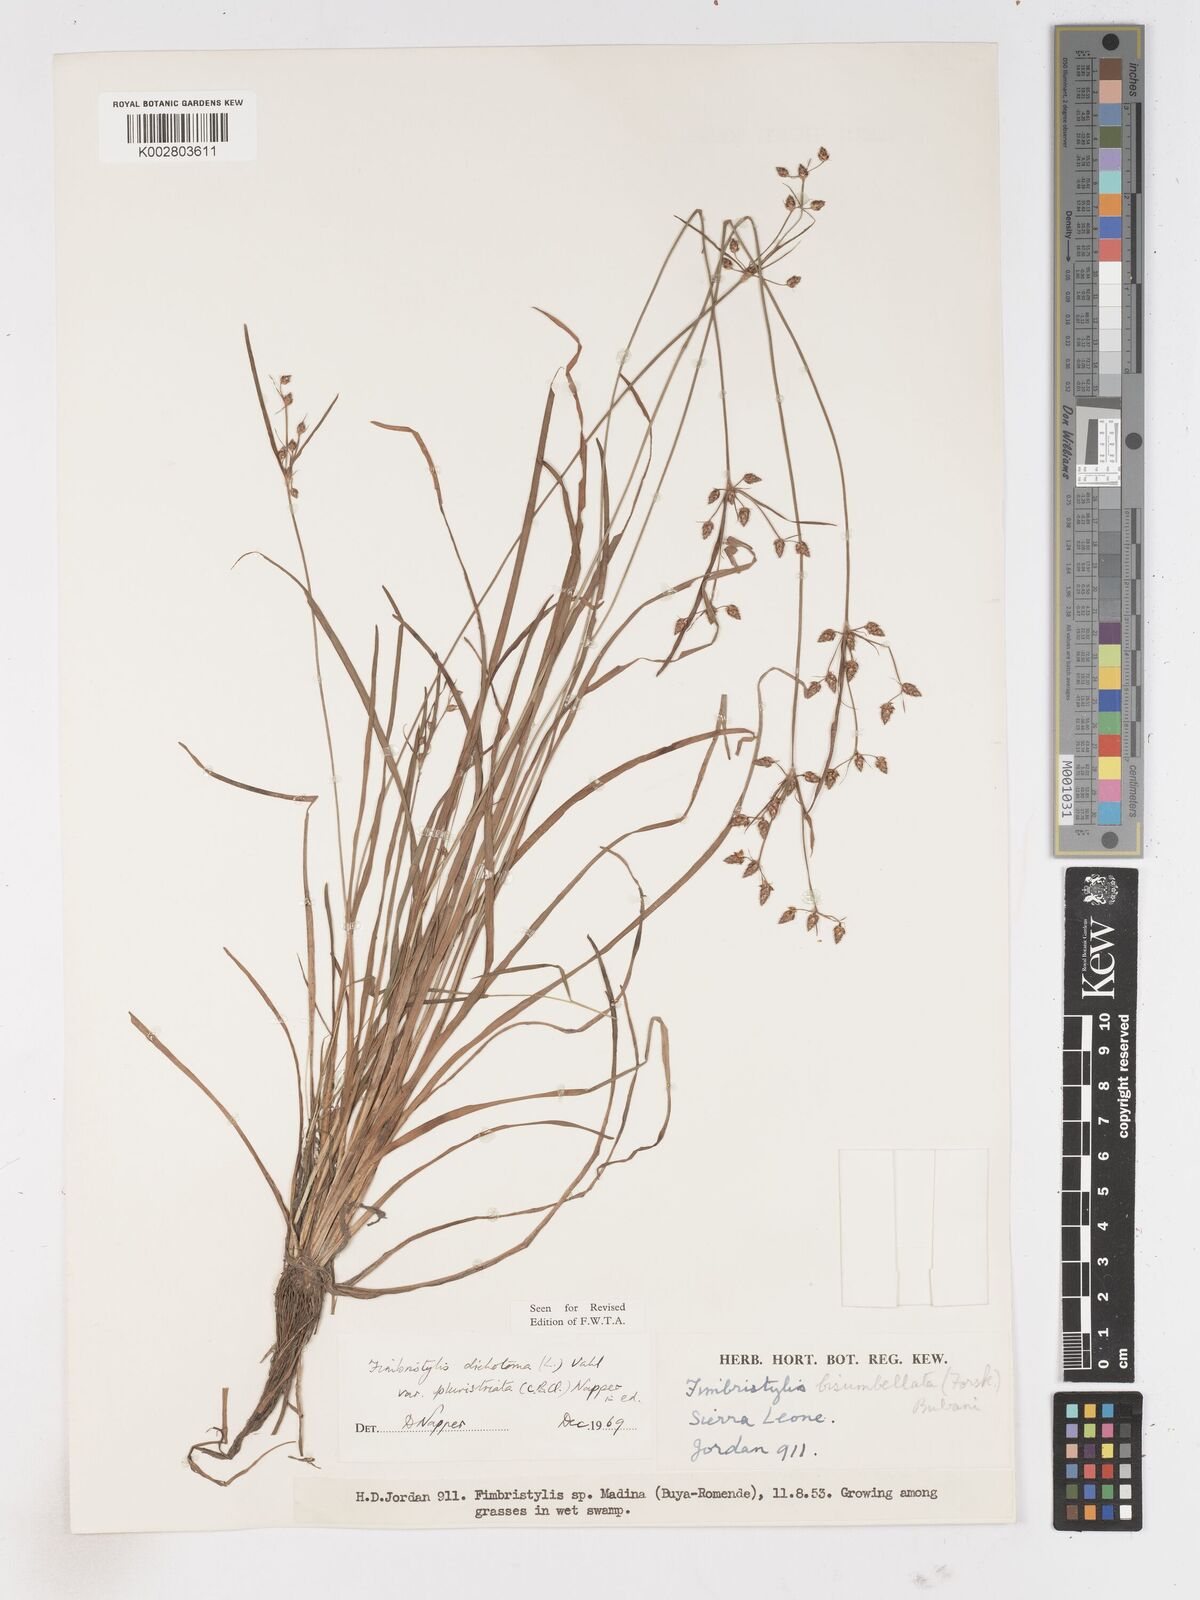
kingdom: Plantae
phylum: Tracheophyta
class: Liliopsida
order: Poales
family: Cyperaceae
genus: Fimbristylis
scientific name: Fimbristylis dichotoma
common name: Forked fimbry
